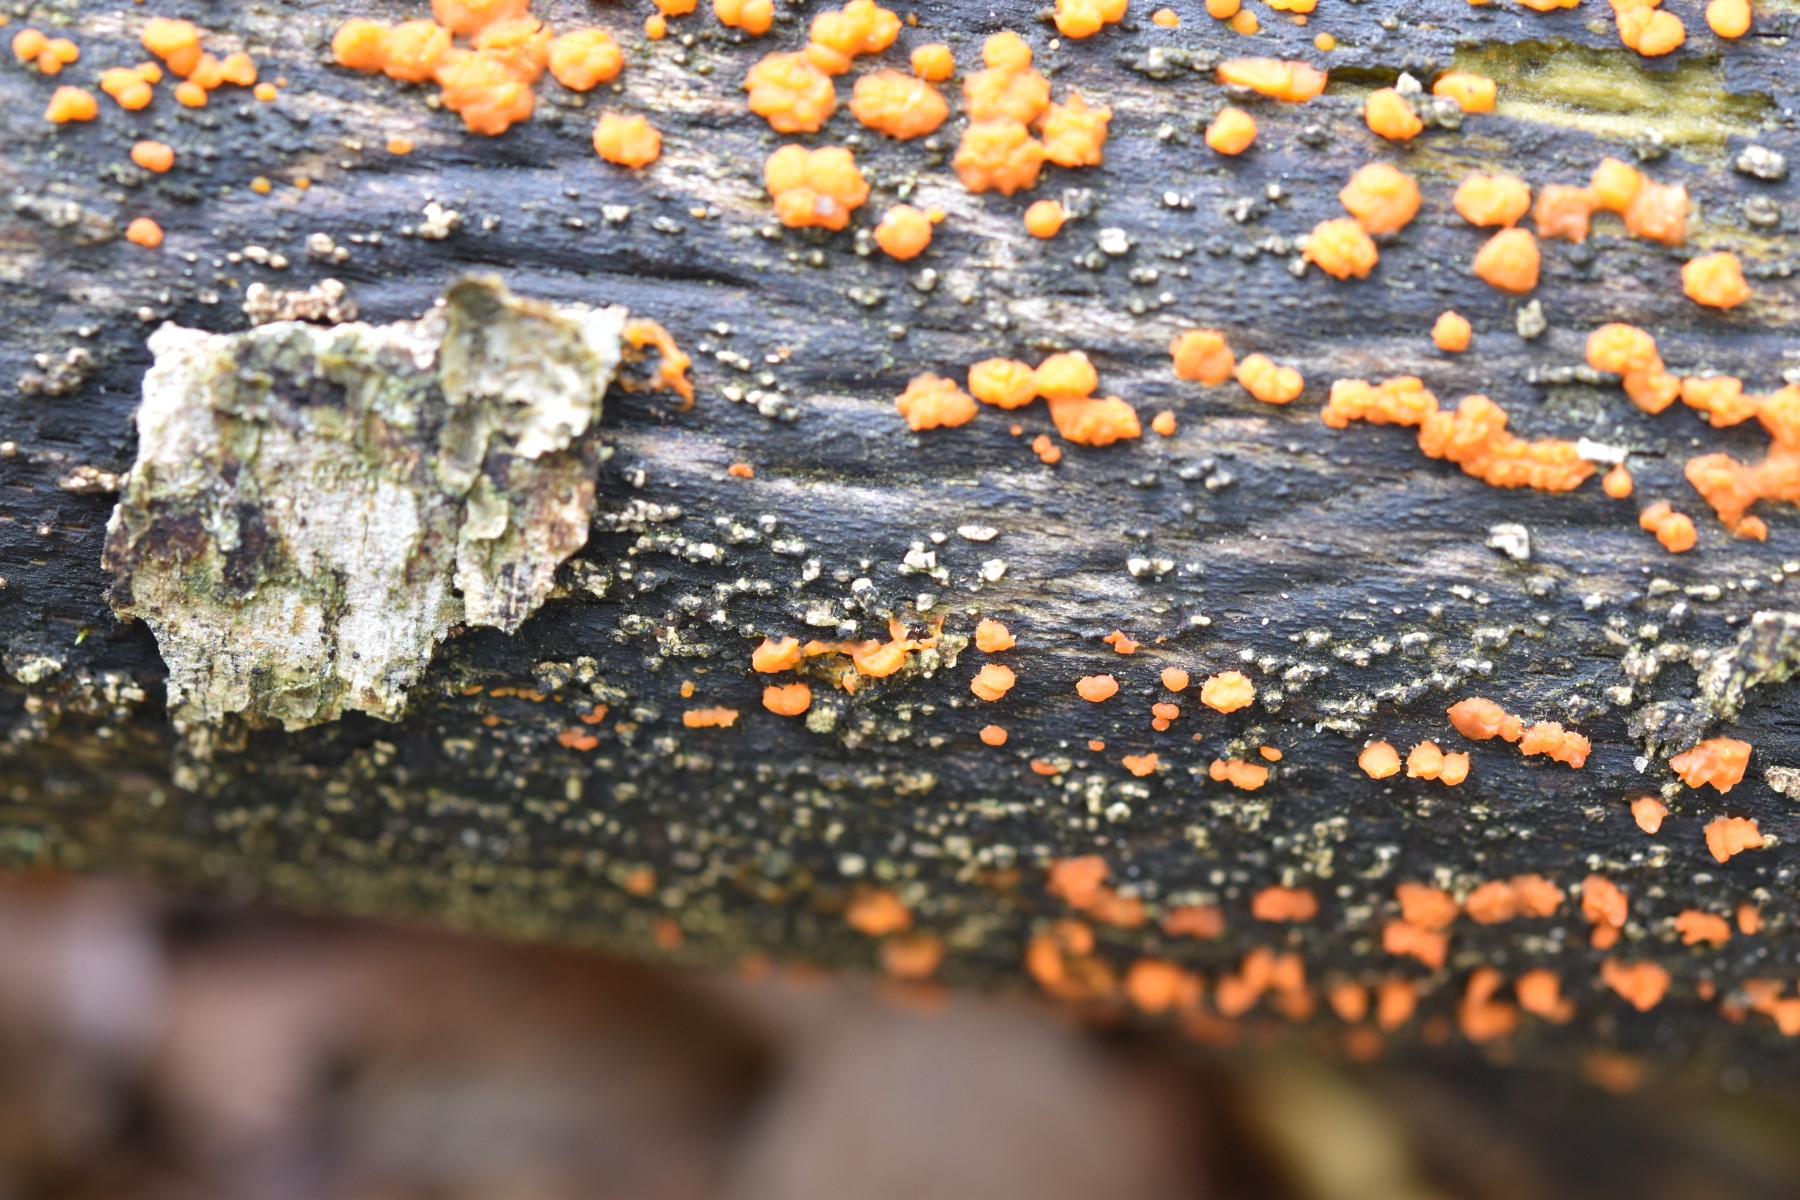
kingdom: Fungi
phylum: Basidiomycota
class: Dacrymycetes
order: Dacrymycetales
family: Dacrymycetaceae
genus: Dacrymyces
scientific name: Dacrymyces stillatus
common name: almindelig tåresvamp
